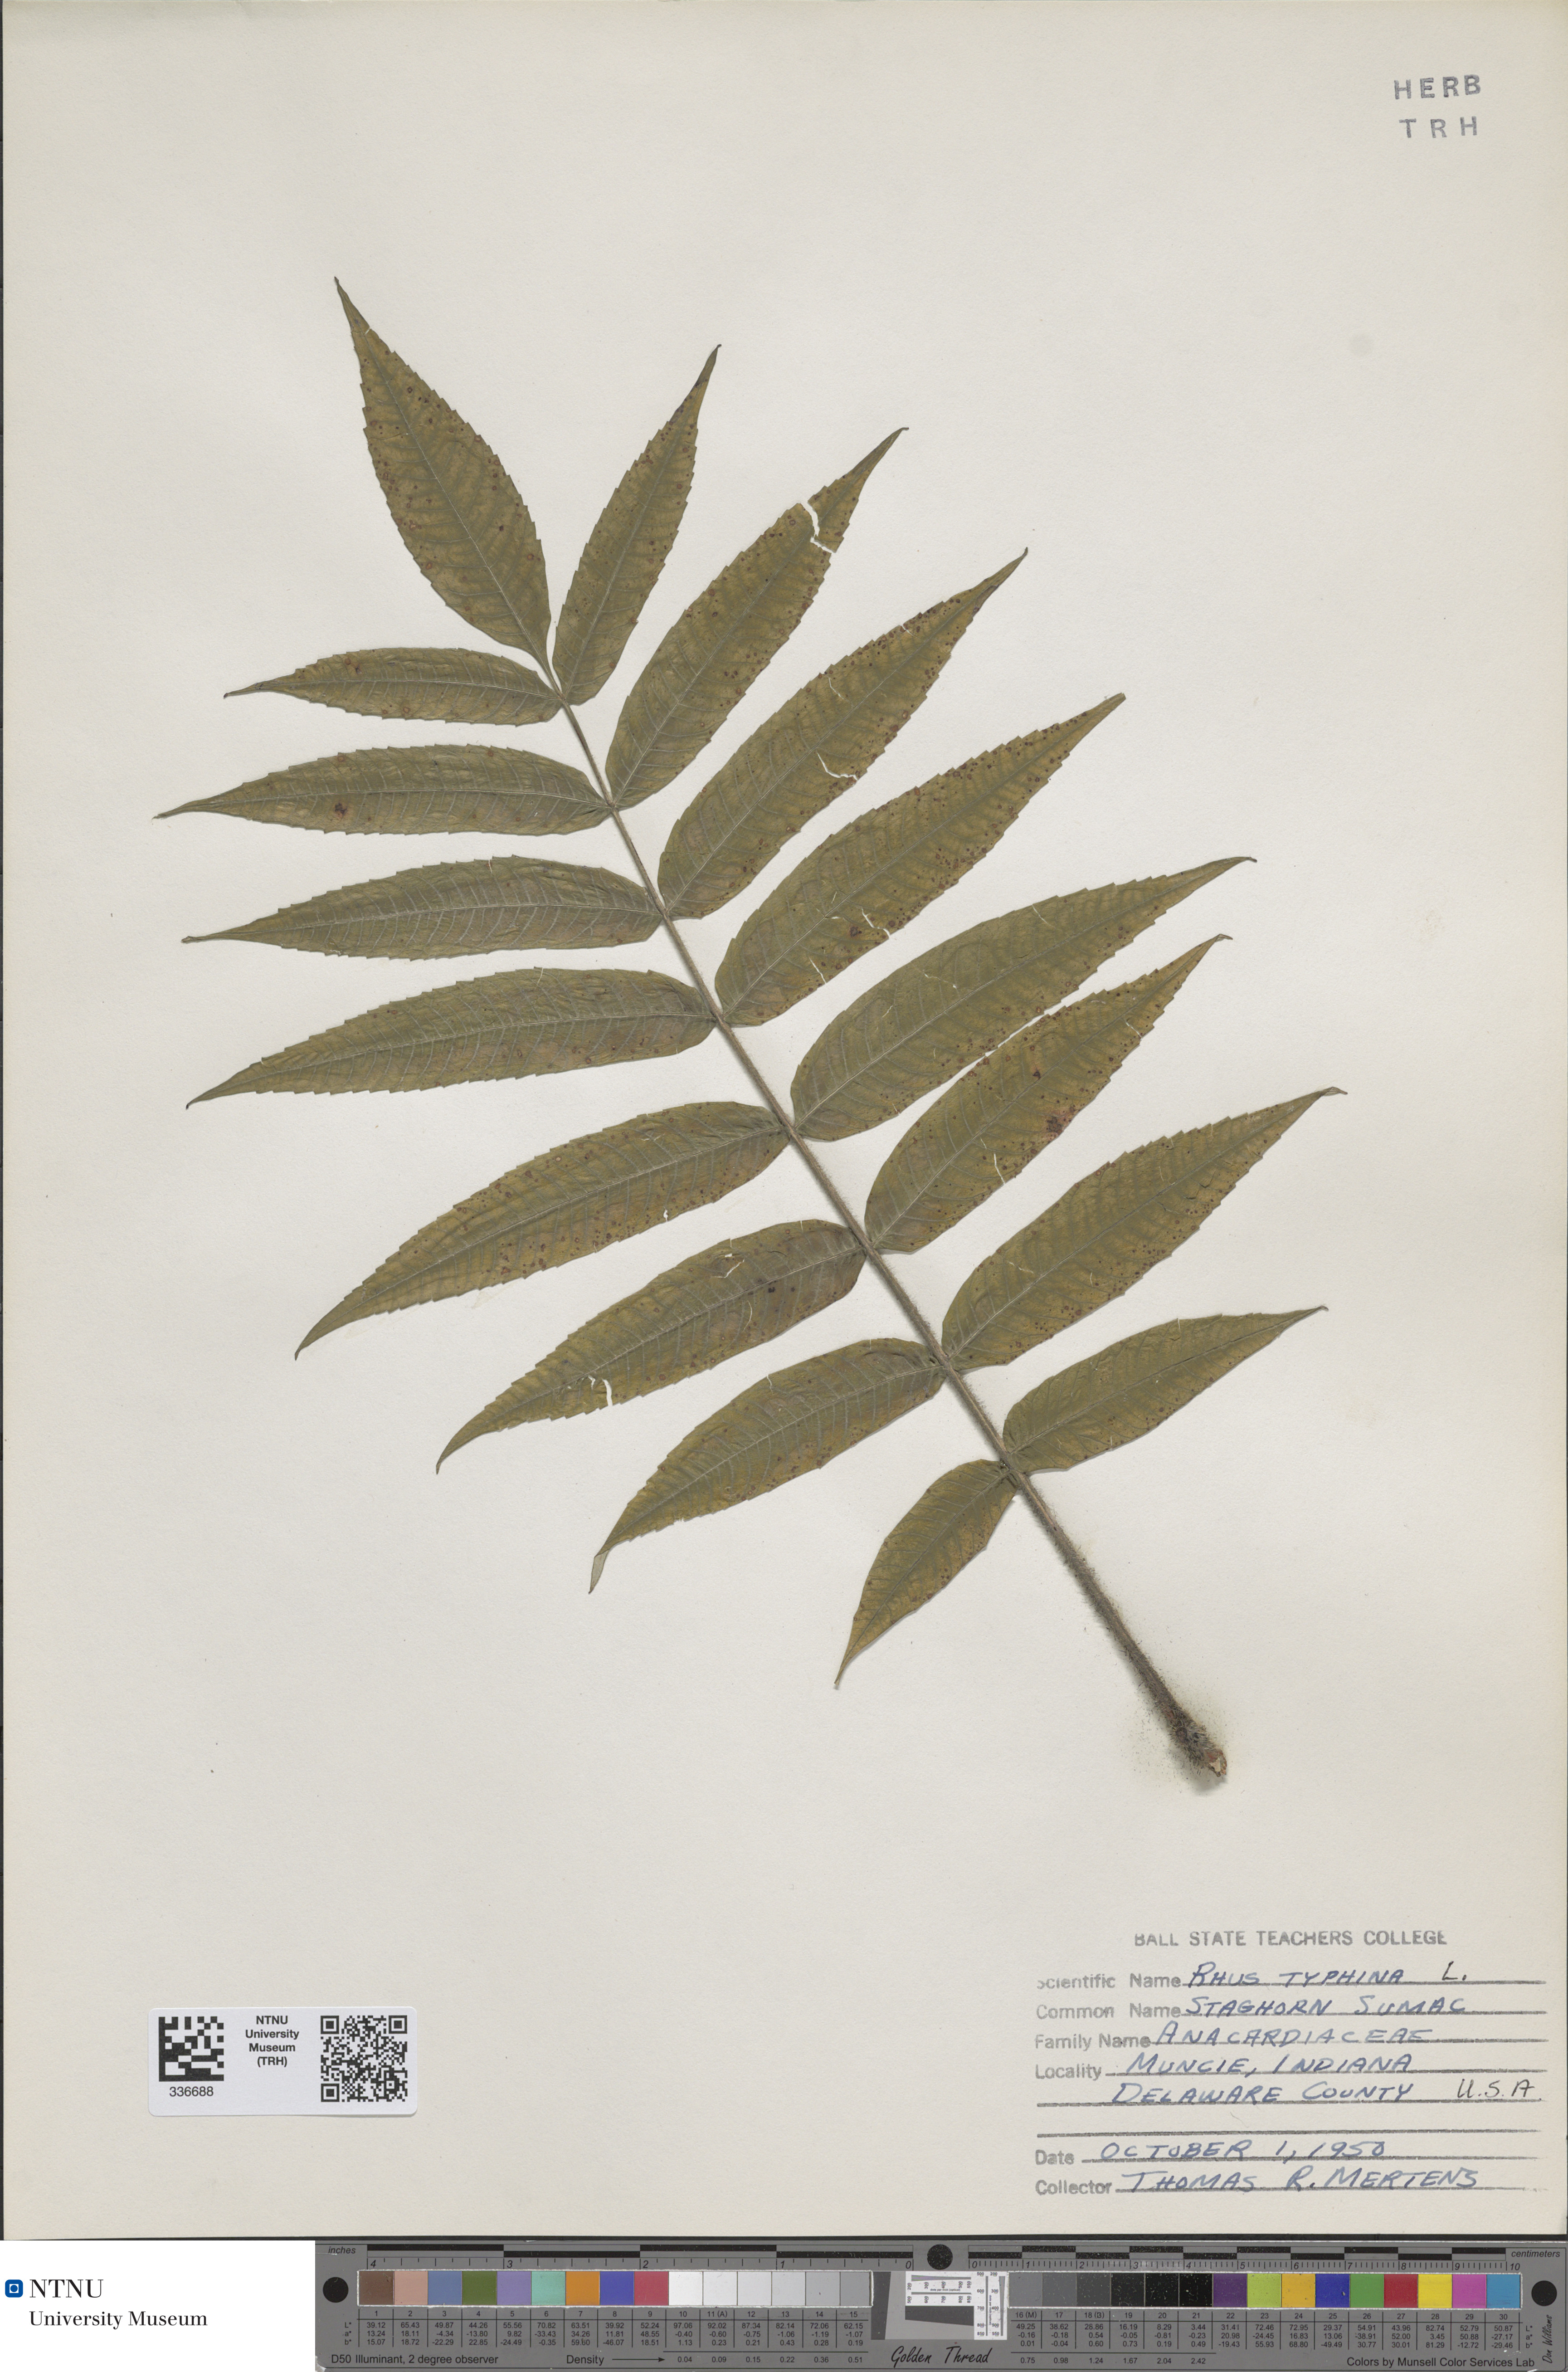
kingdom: Plantae
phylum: Tracheophyta
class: Magnoliopsida
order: Sapindales
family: Anacardiaceae
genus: Rhus
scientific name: Rhus typhina
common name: Staghorn sumac
